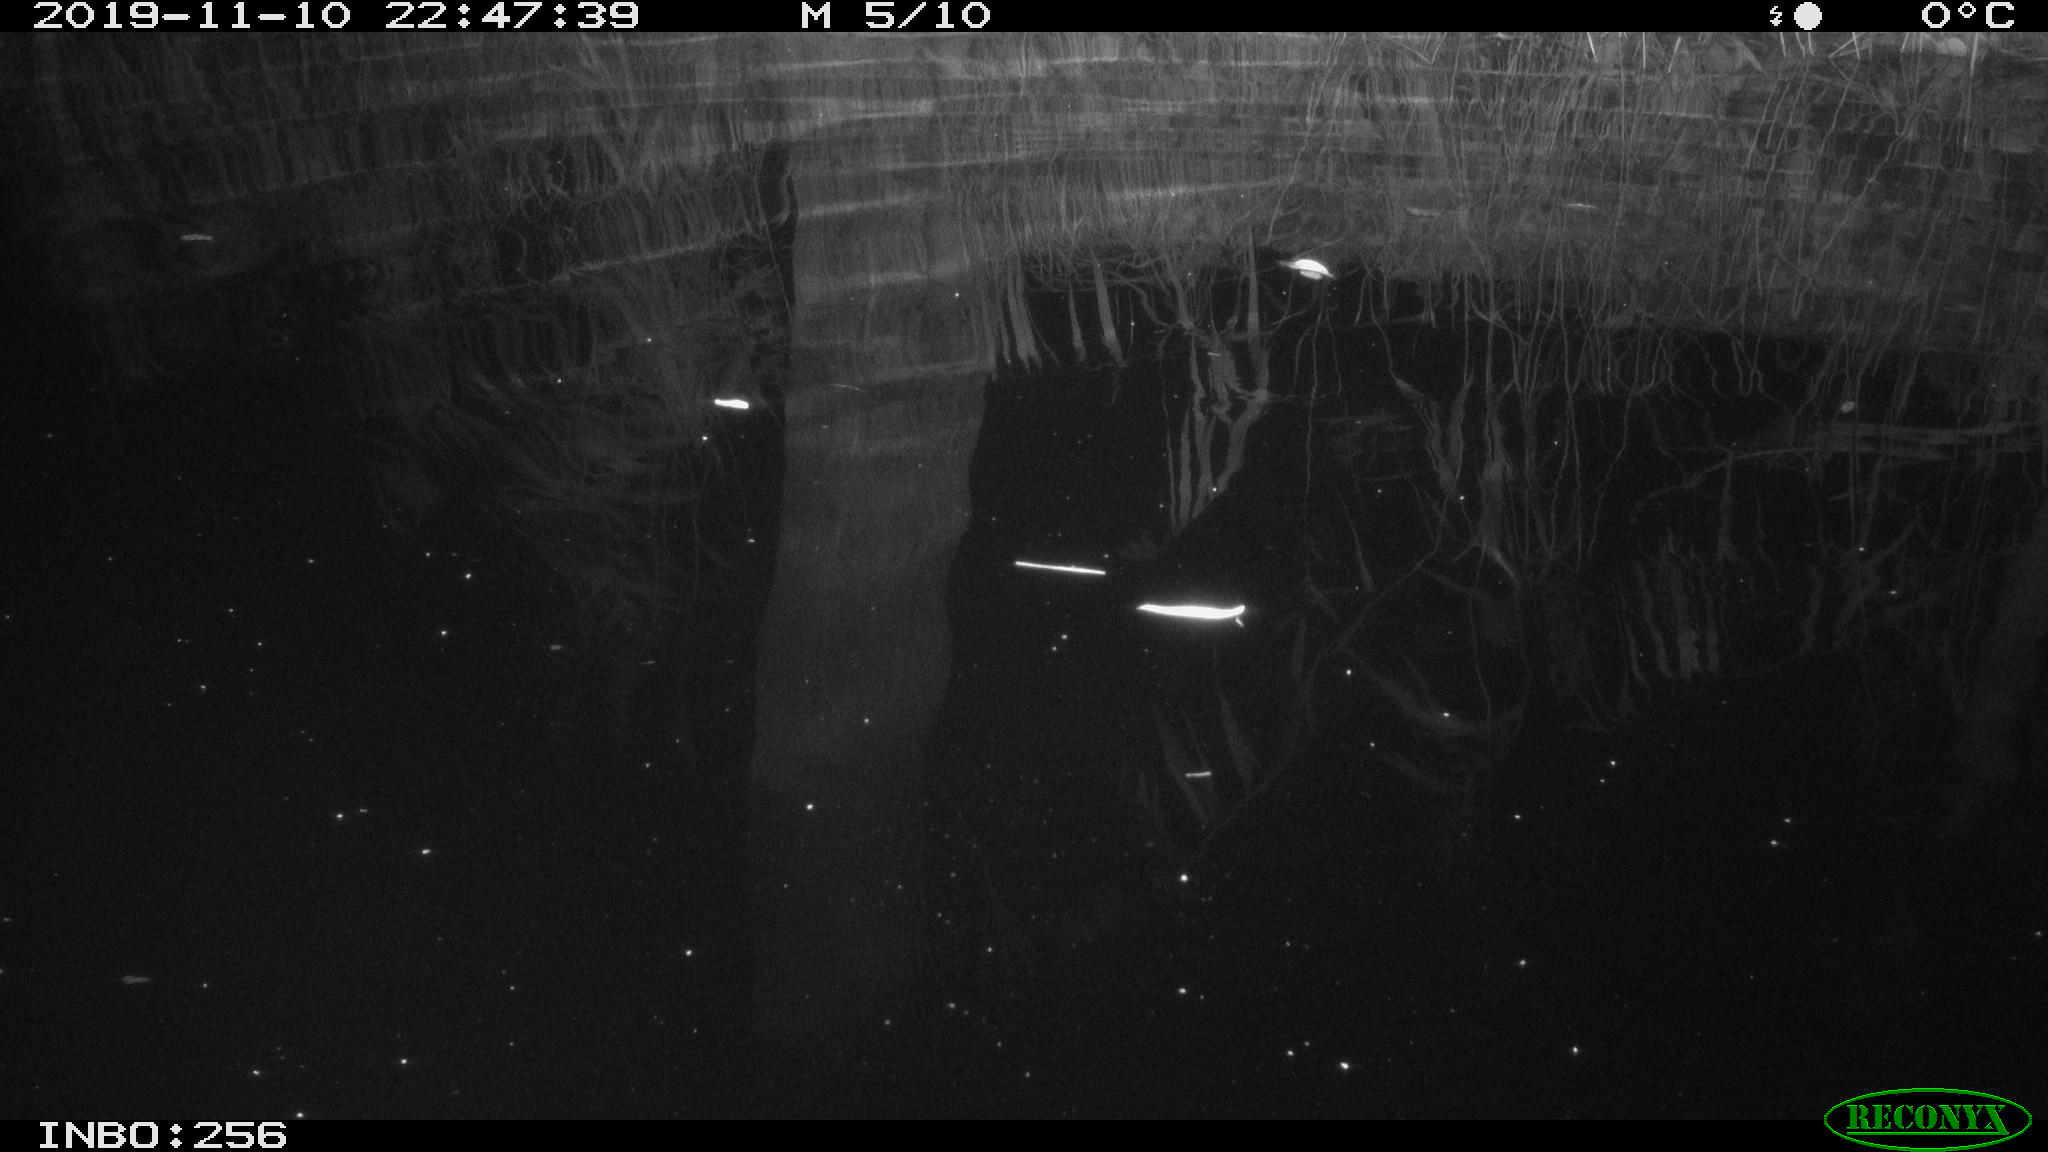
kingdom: Animalia
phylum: Chordata
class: Aves
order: Anseriformes
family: Anatidae
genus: Anas
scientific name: Anas platyrhynchos
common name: Mallard
